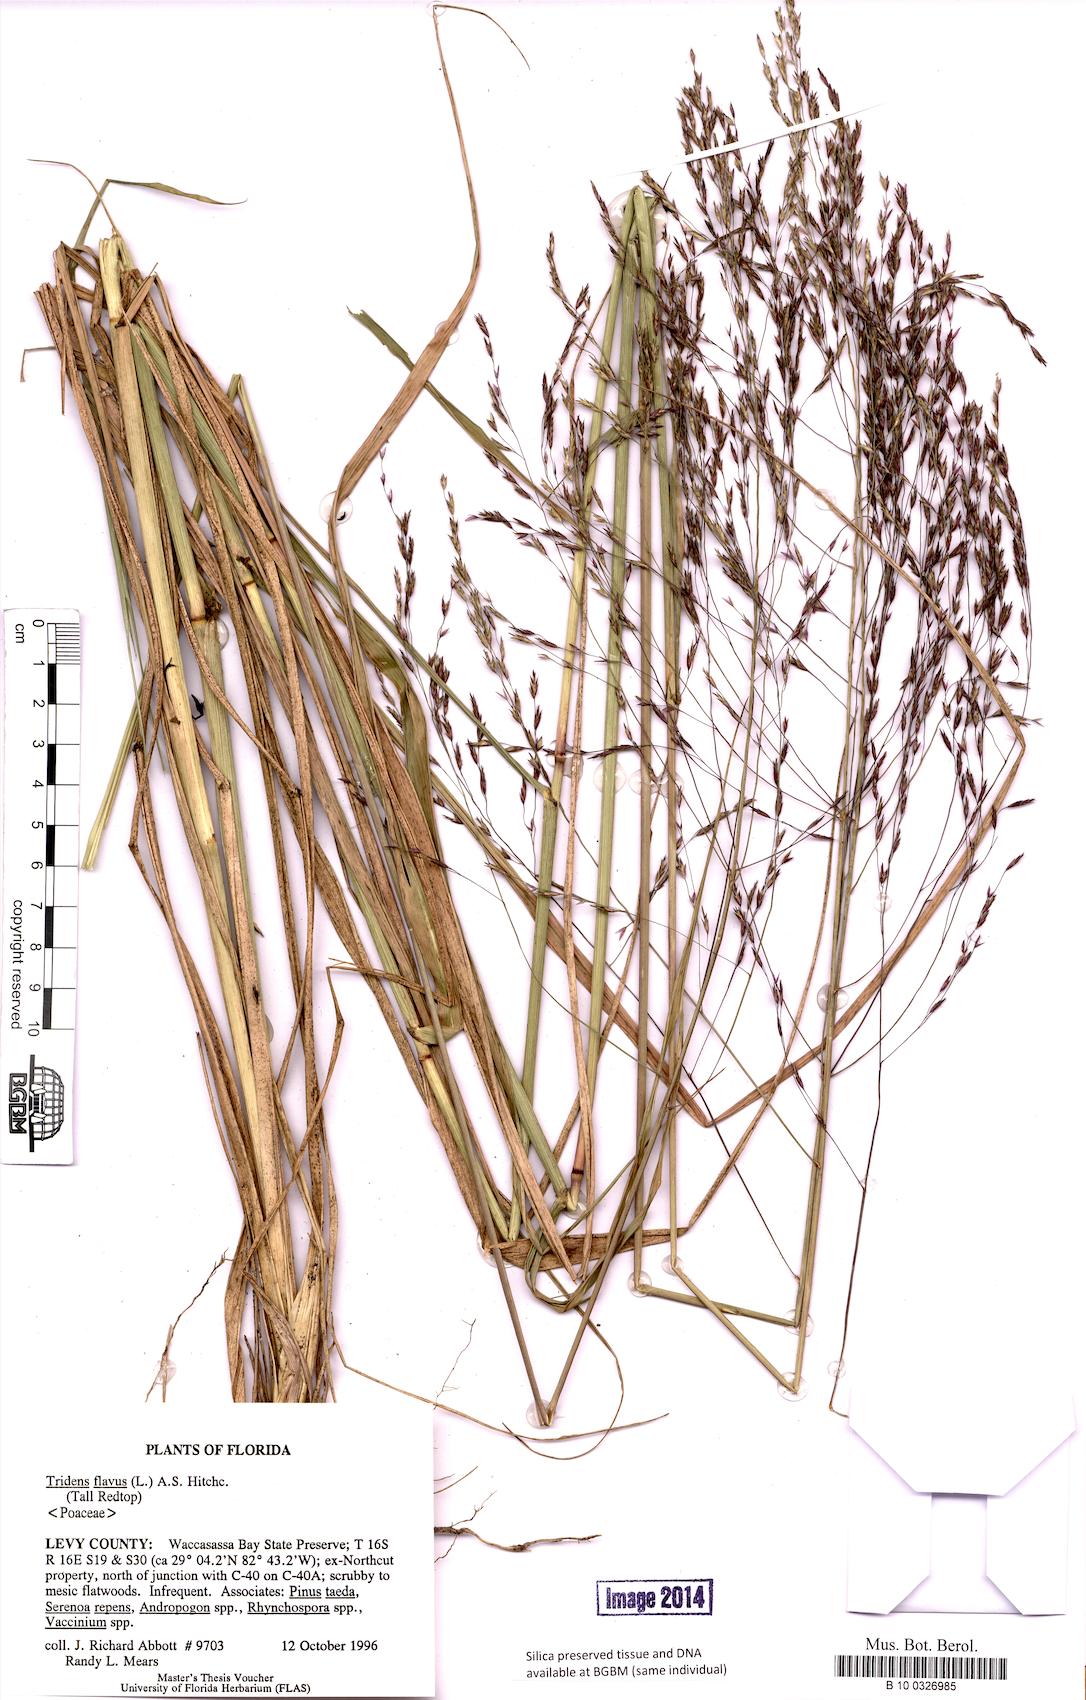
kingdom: Plantae
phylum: Tracheophyta
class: Liliopsida
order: Poales
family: Poaceae
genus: Tridens
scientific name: Tridens flavus
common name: Purpletop
